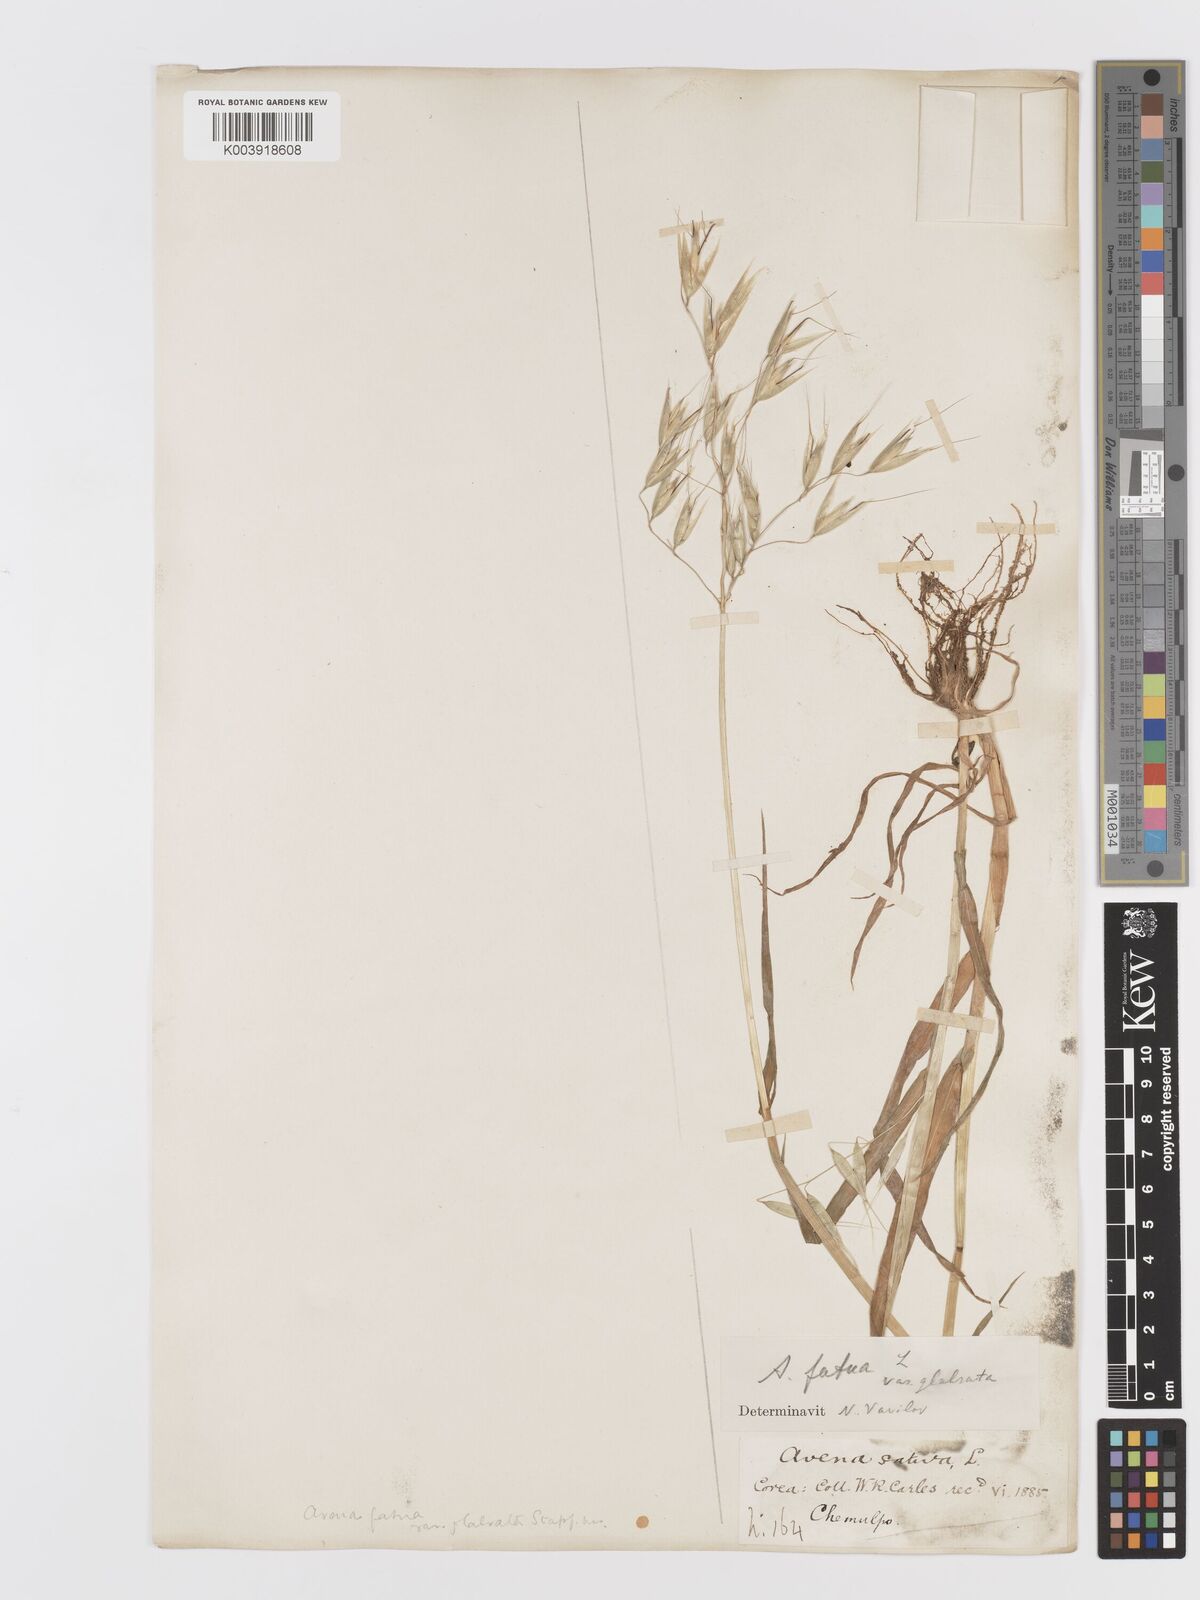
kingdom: Plantae
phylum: Tracheophyta
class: Liliopsida
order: Poales
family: Poaceae
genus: Avena
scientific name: Avena fatua
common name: Wild oat
